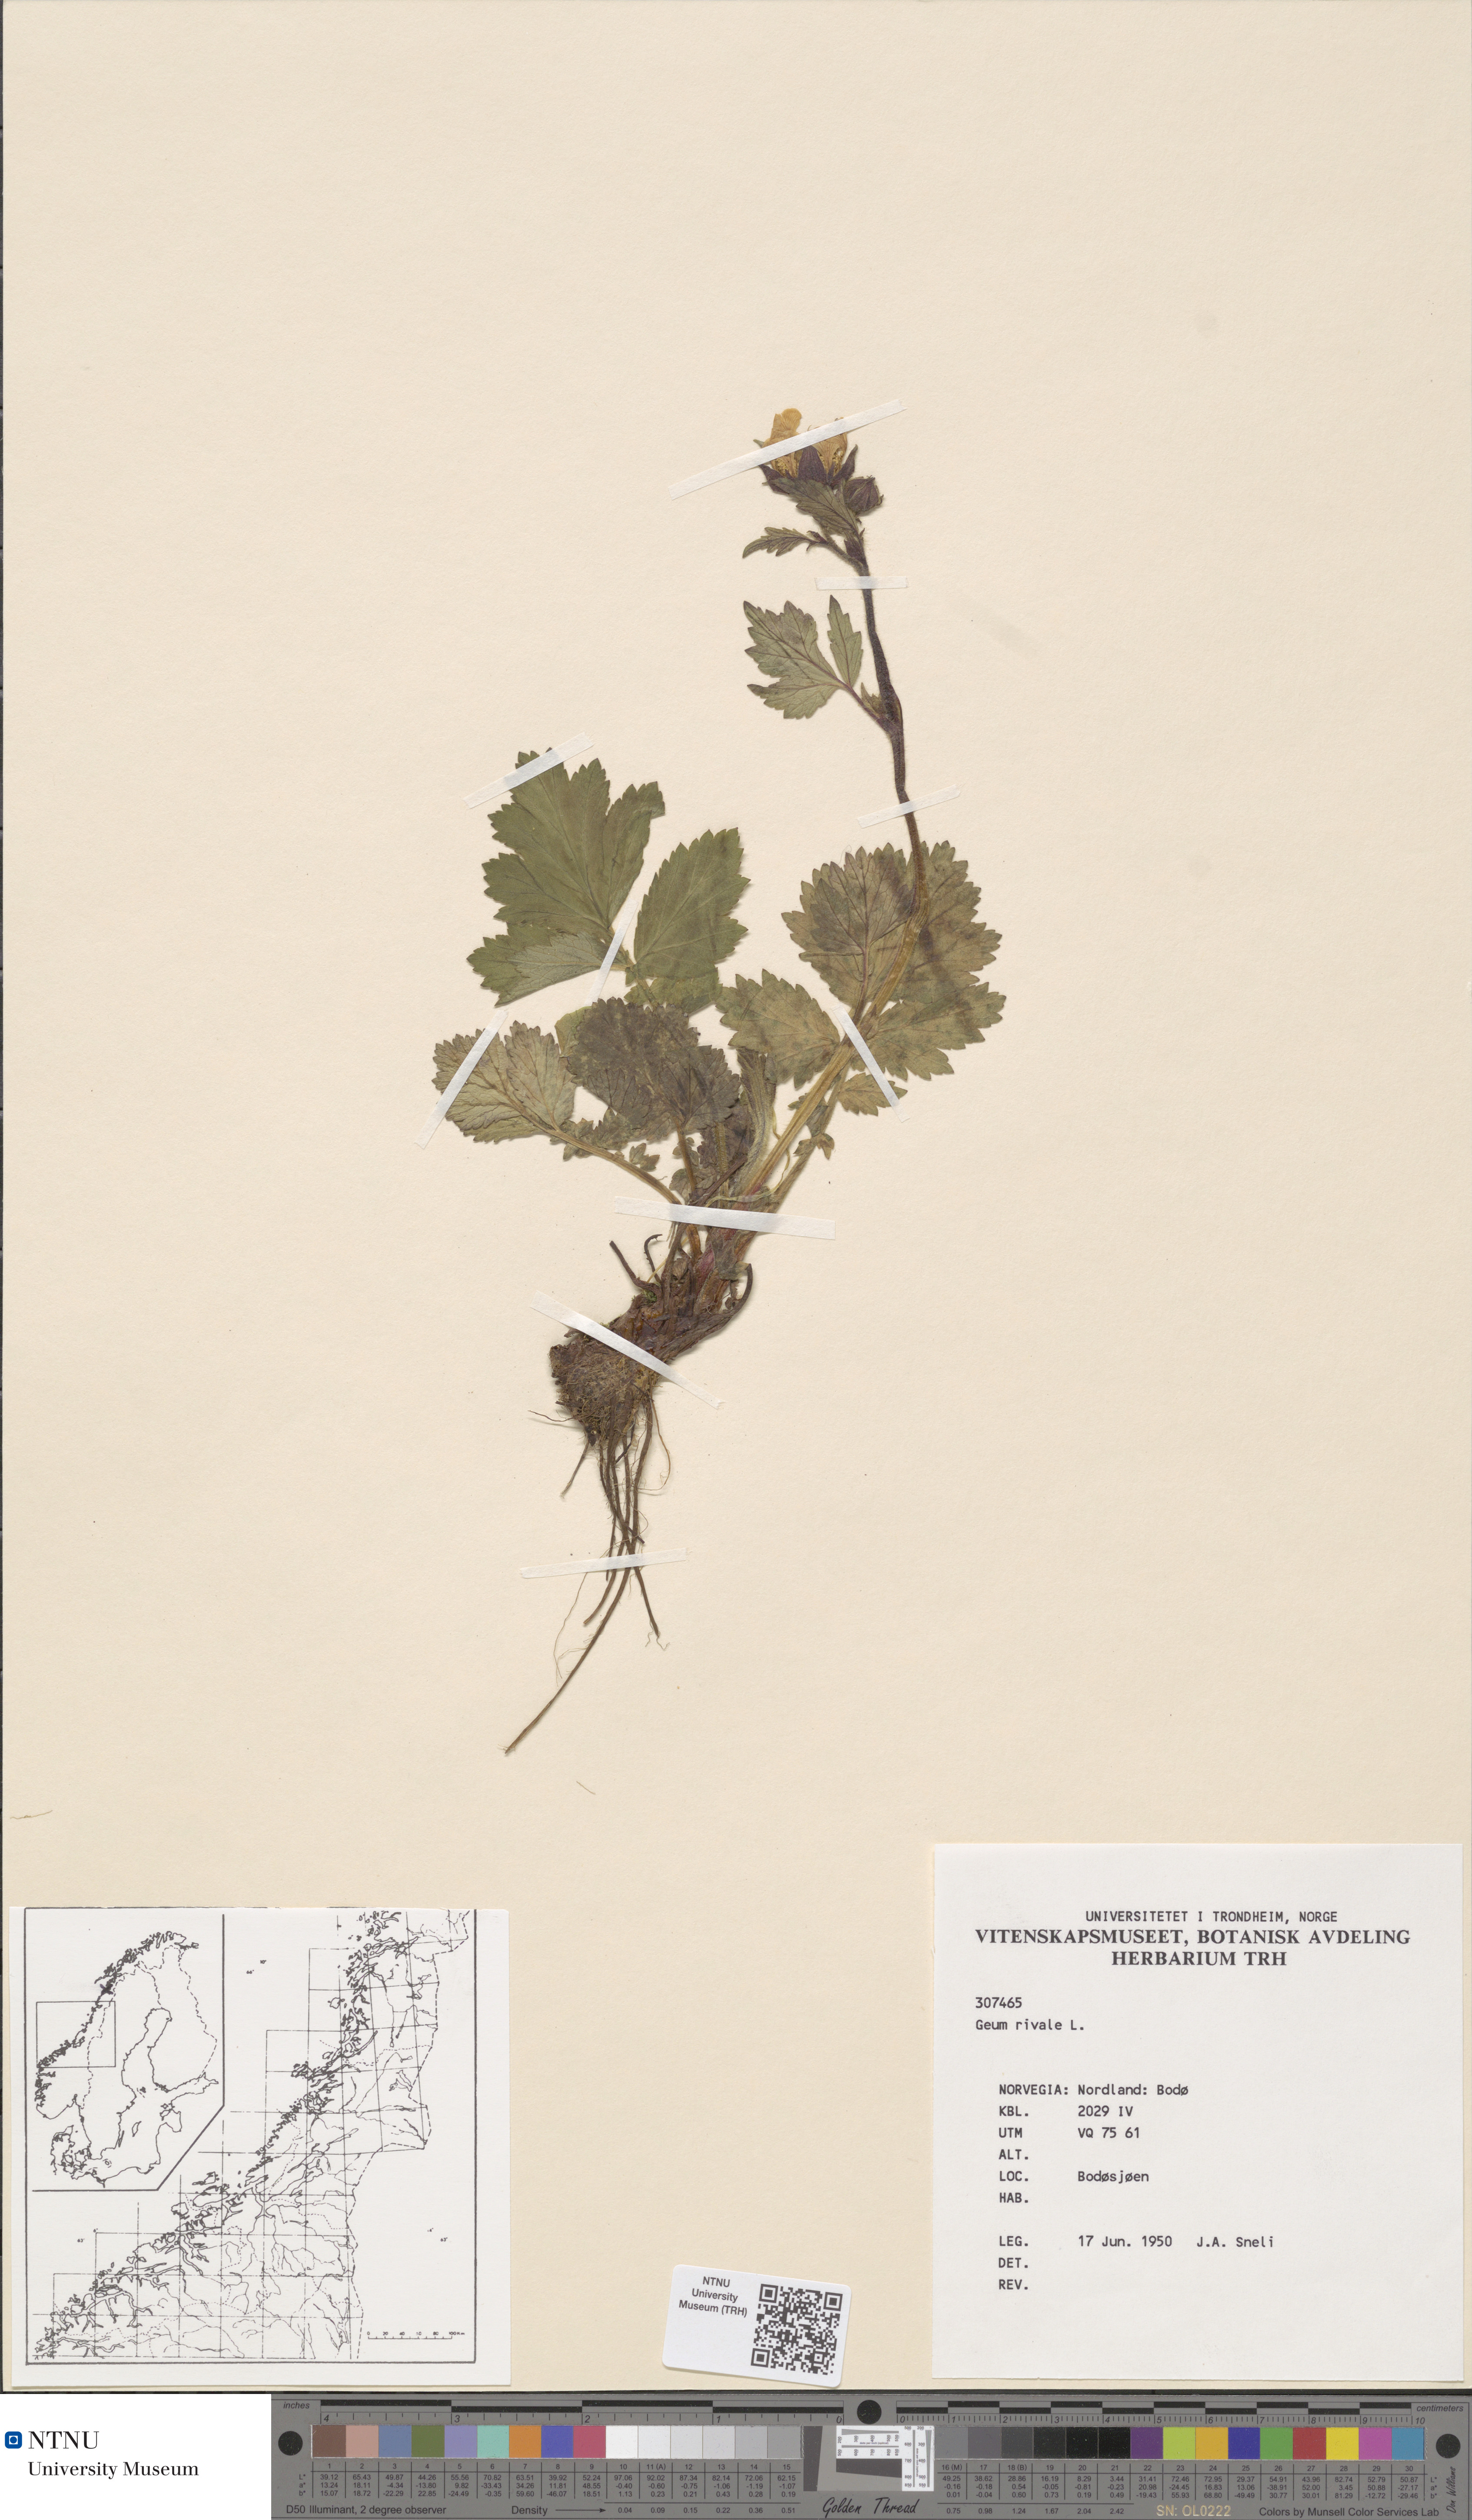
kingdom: Plantae
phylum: Tracheophyta
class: Magnoliopsida
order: Rosales
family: Rosaceae
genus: Geum
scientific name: Geum rivale
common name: Water avens
